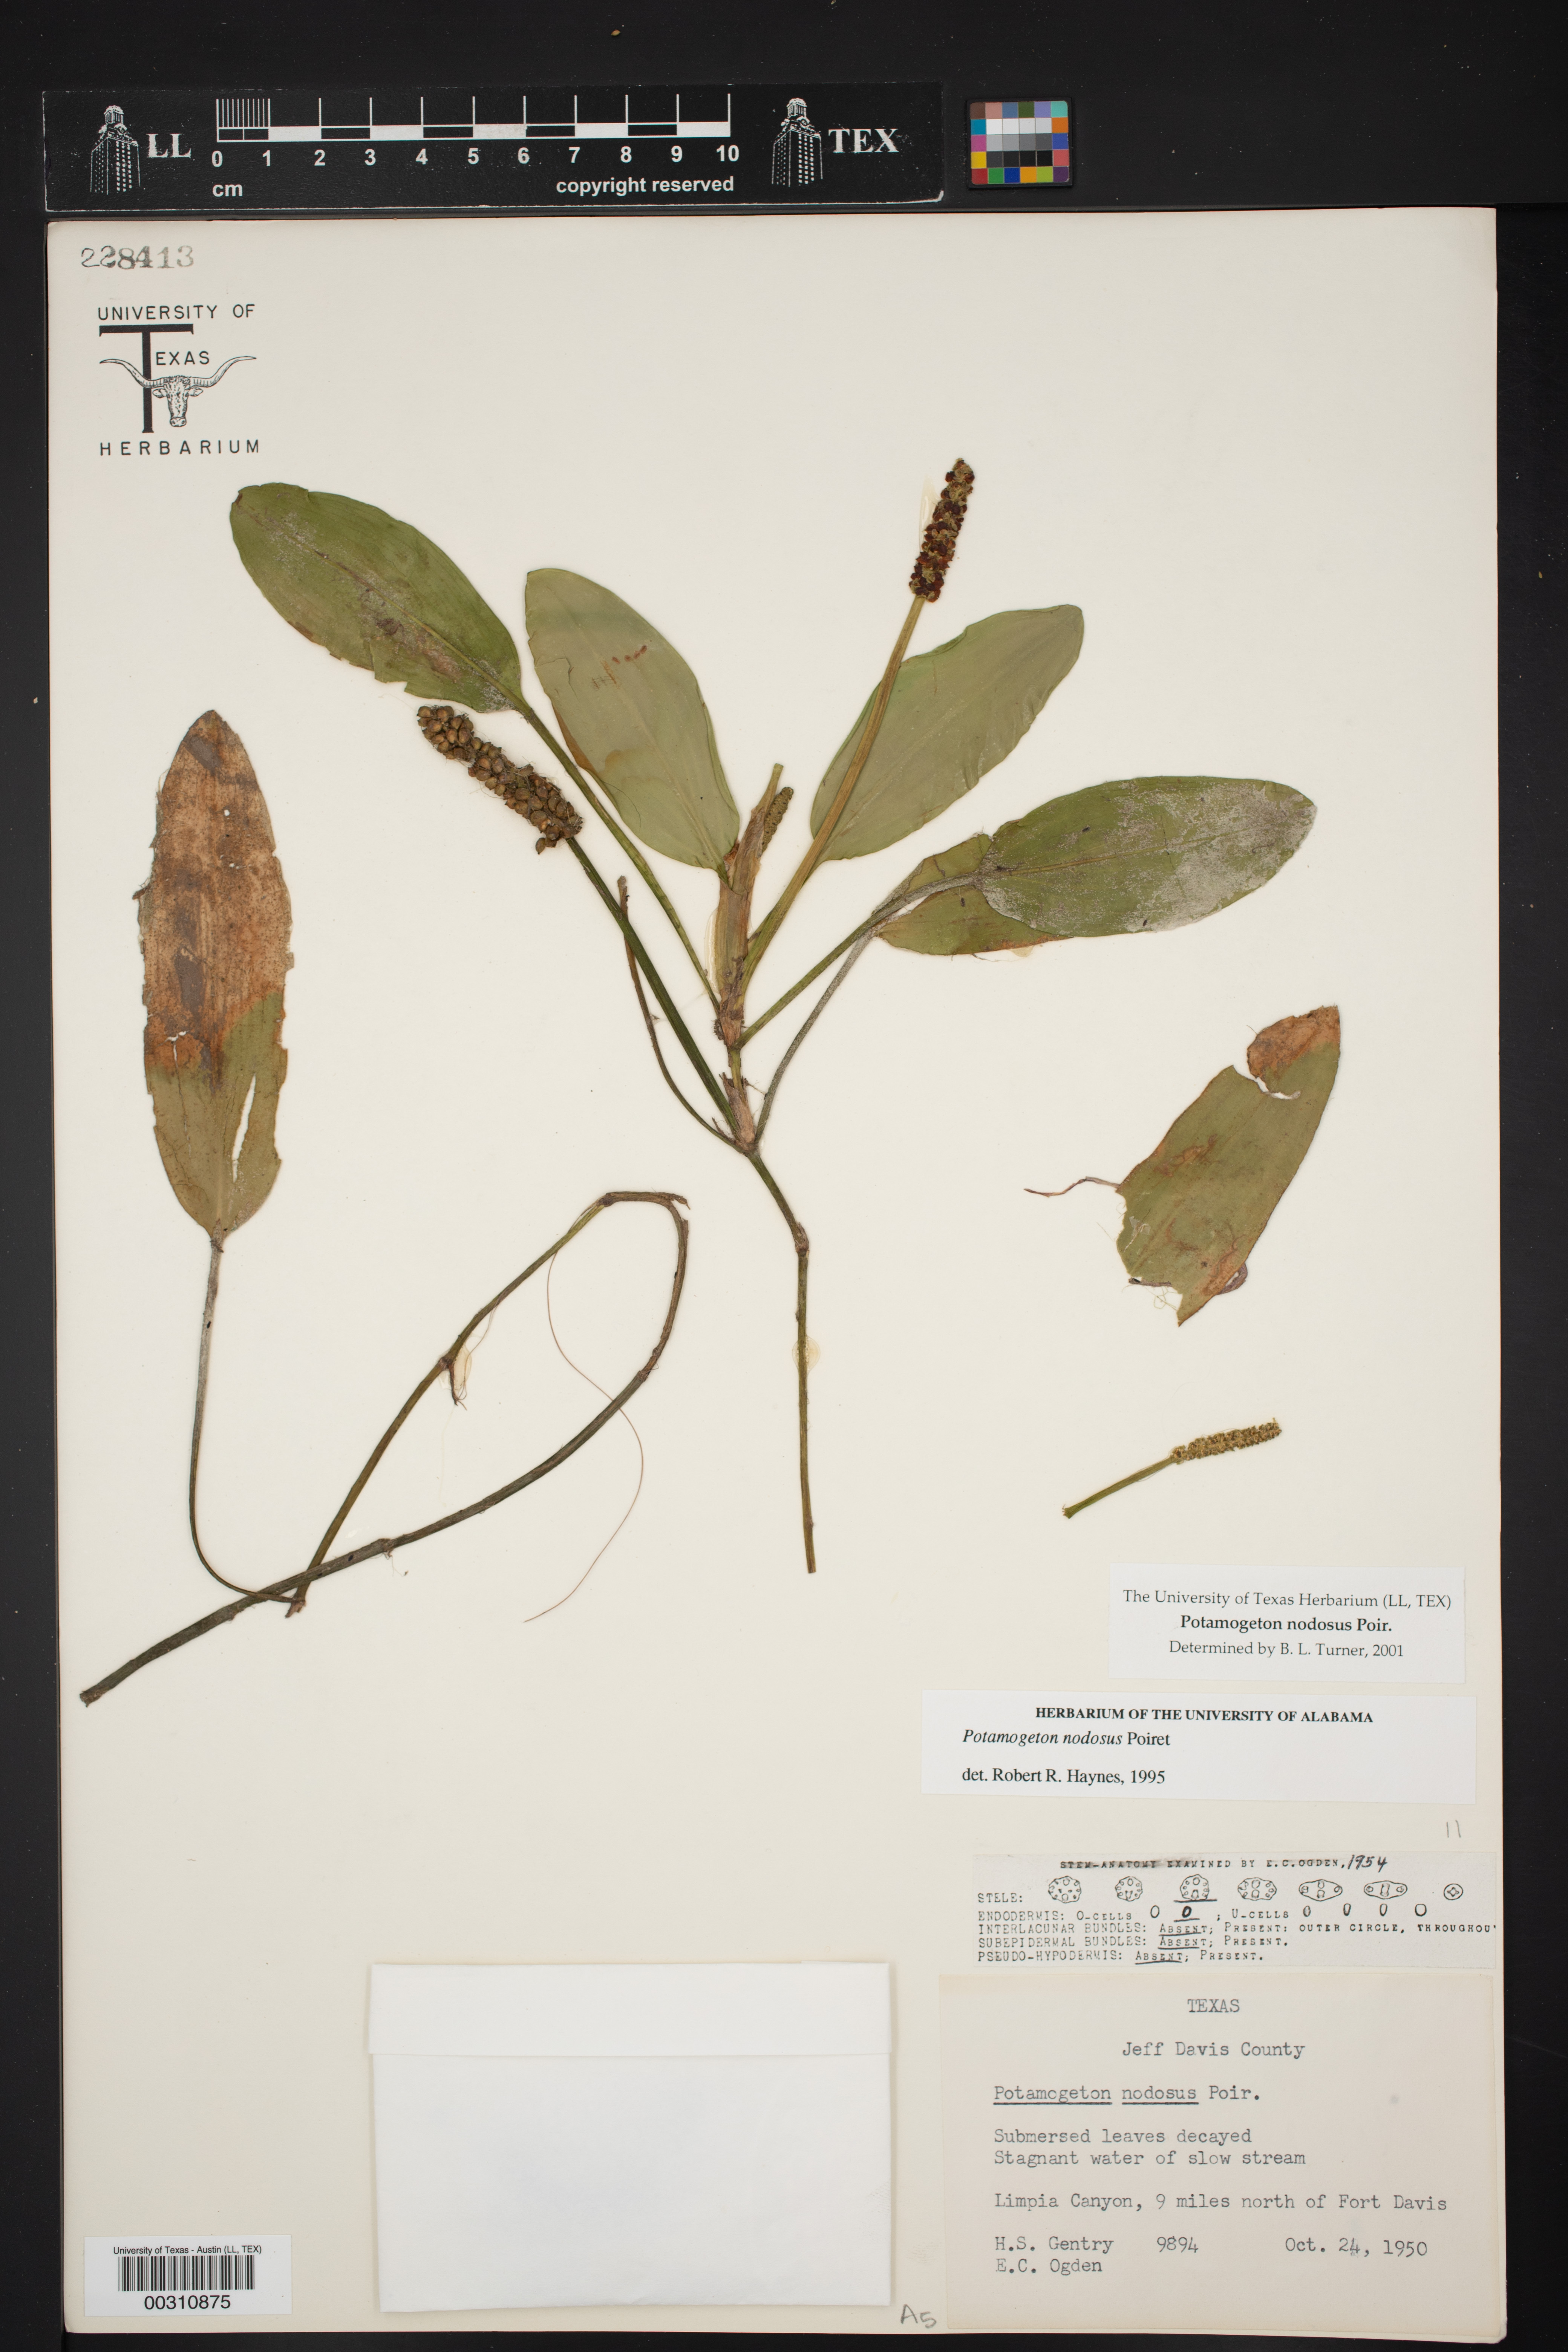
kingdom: Plantae
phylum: Tracheophyta
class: Liliopsida
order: Alismatales
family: Potamogetonaceae
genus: Potamogeton
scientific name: Potamogeton nodosus
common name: Loddon pondweed
